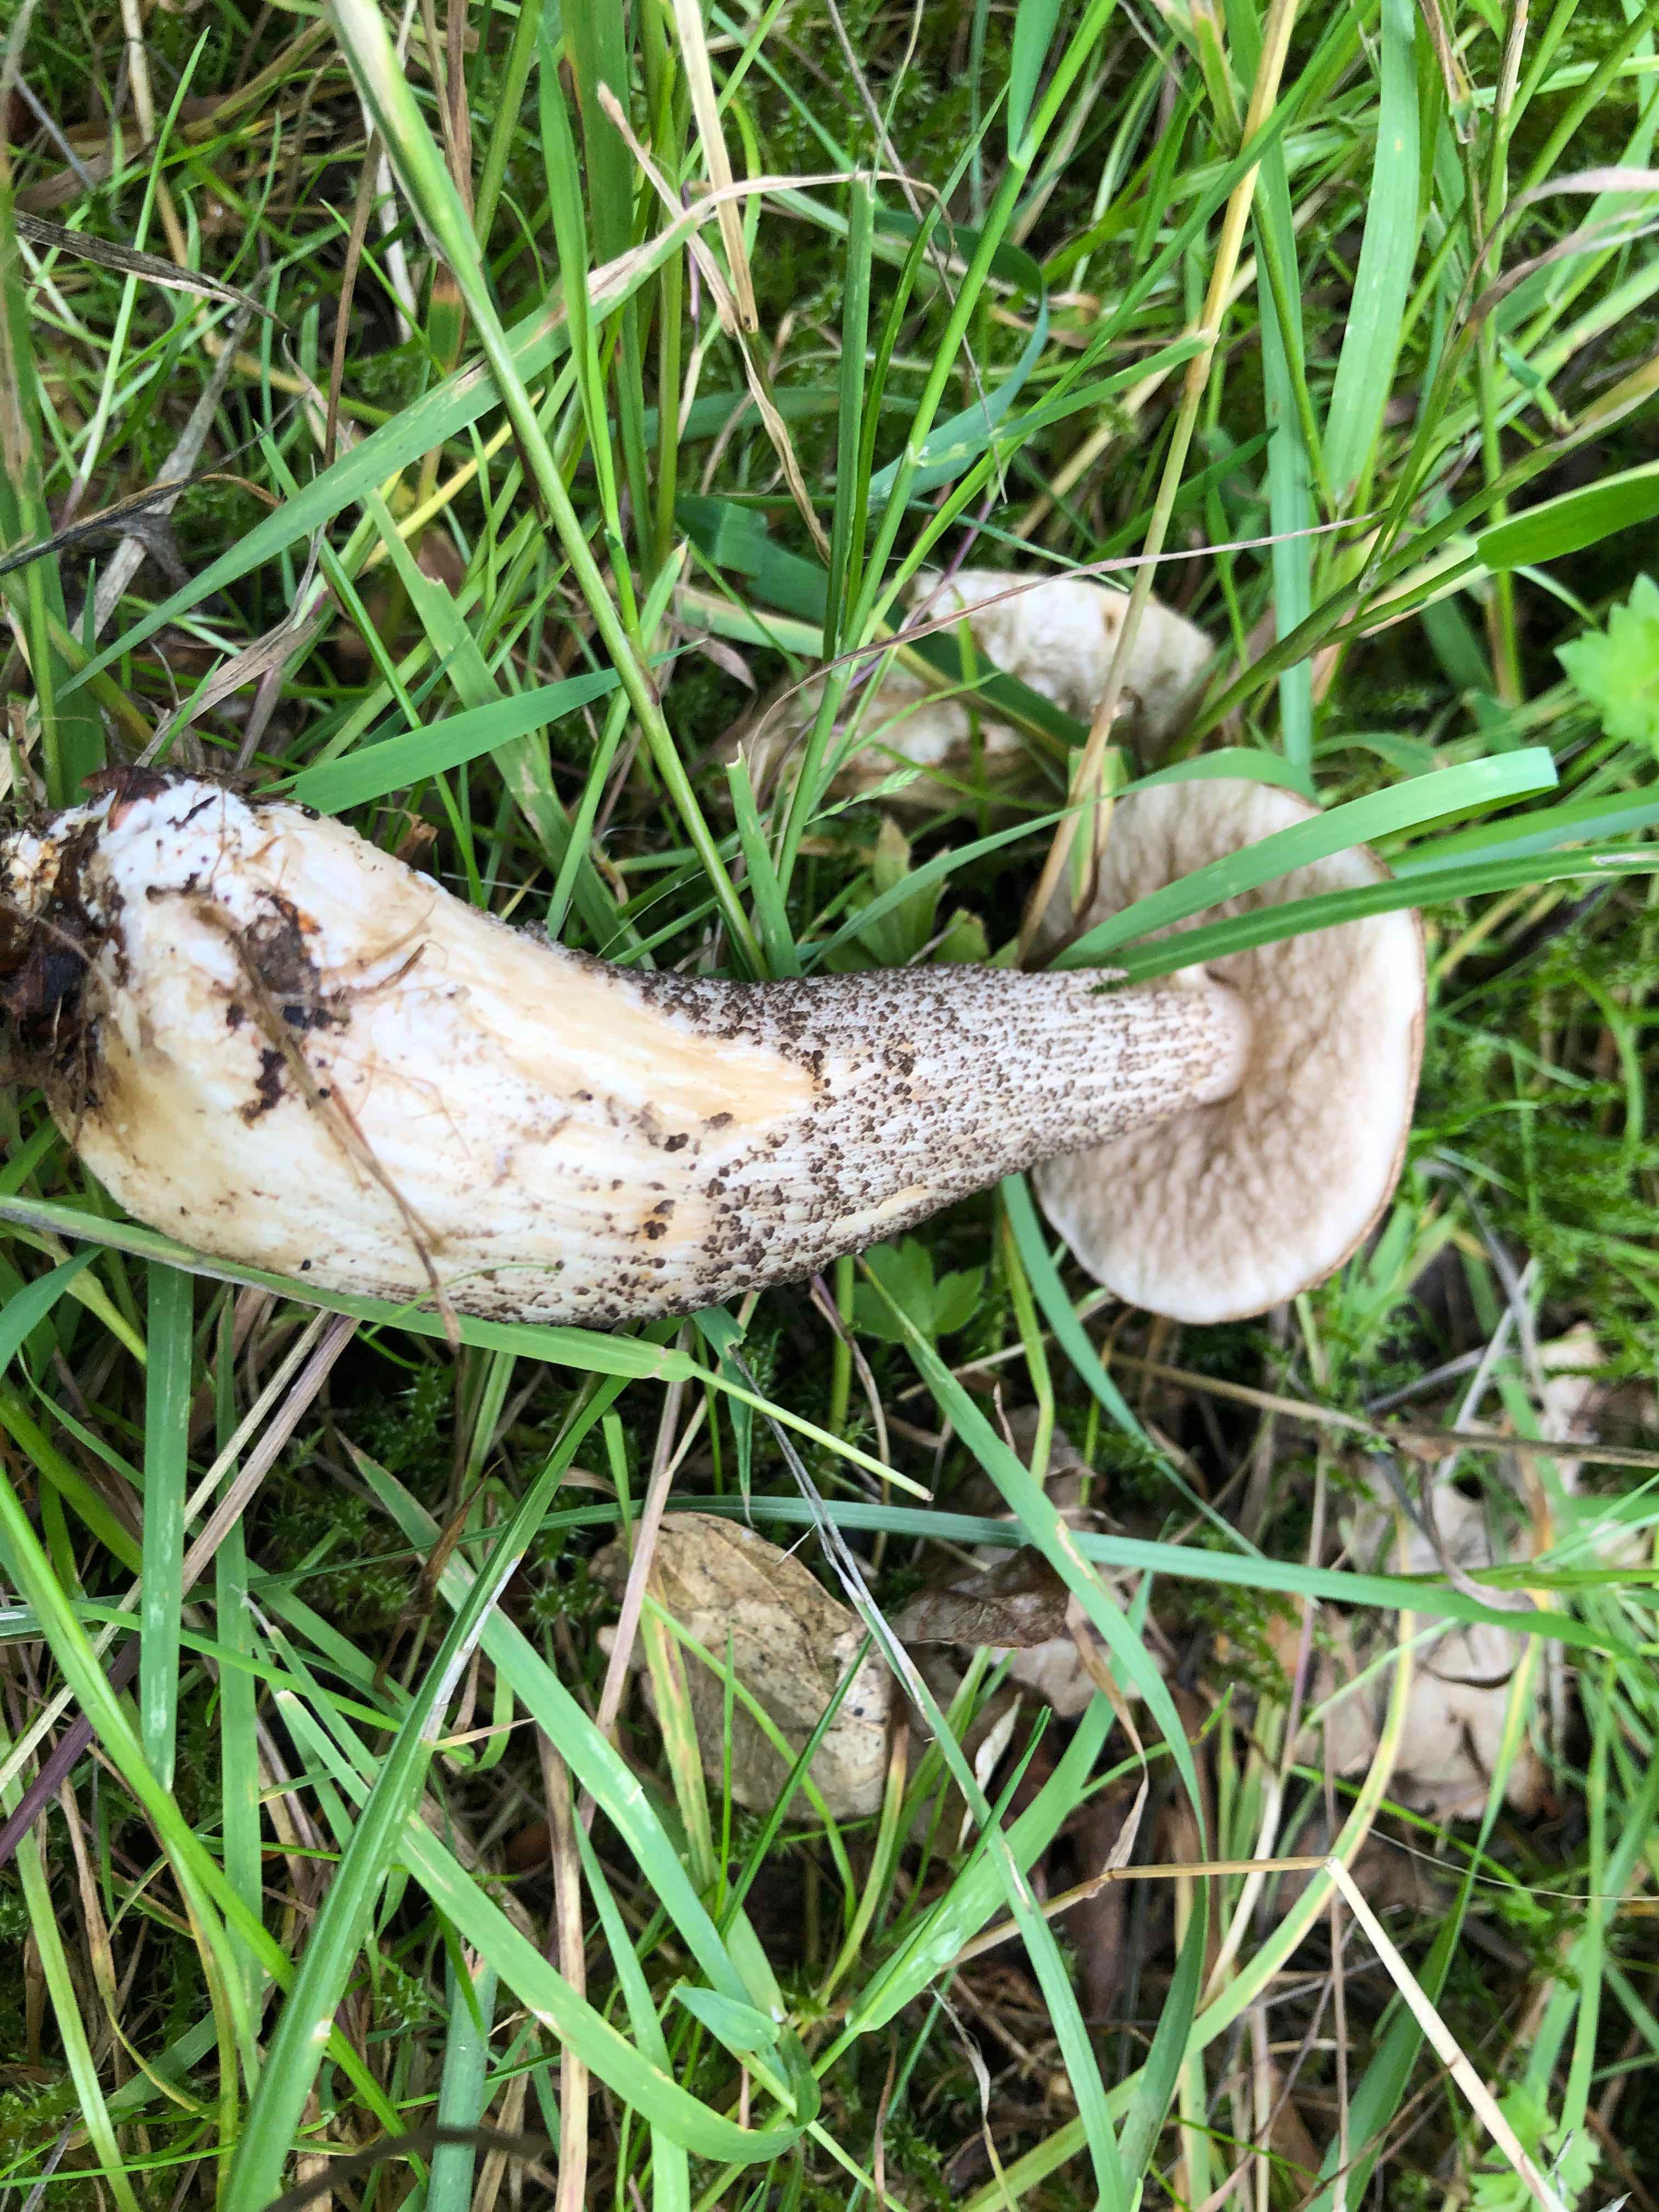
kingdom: Fungi
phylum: Basidiomycota
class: Agaricomycetes
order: Boletales
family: Boletaceae
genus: Leccinum
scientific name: Leccinum scabrum
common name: brun skælrørhat
